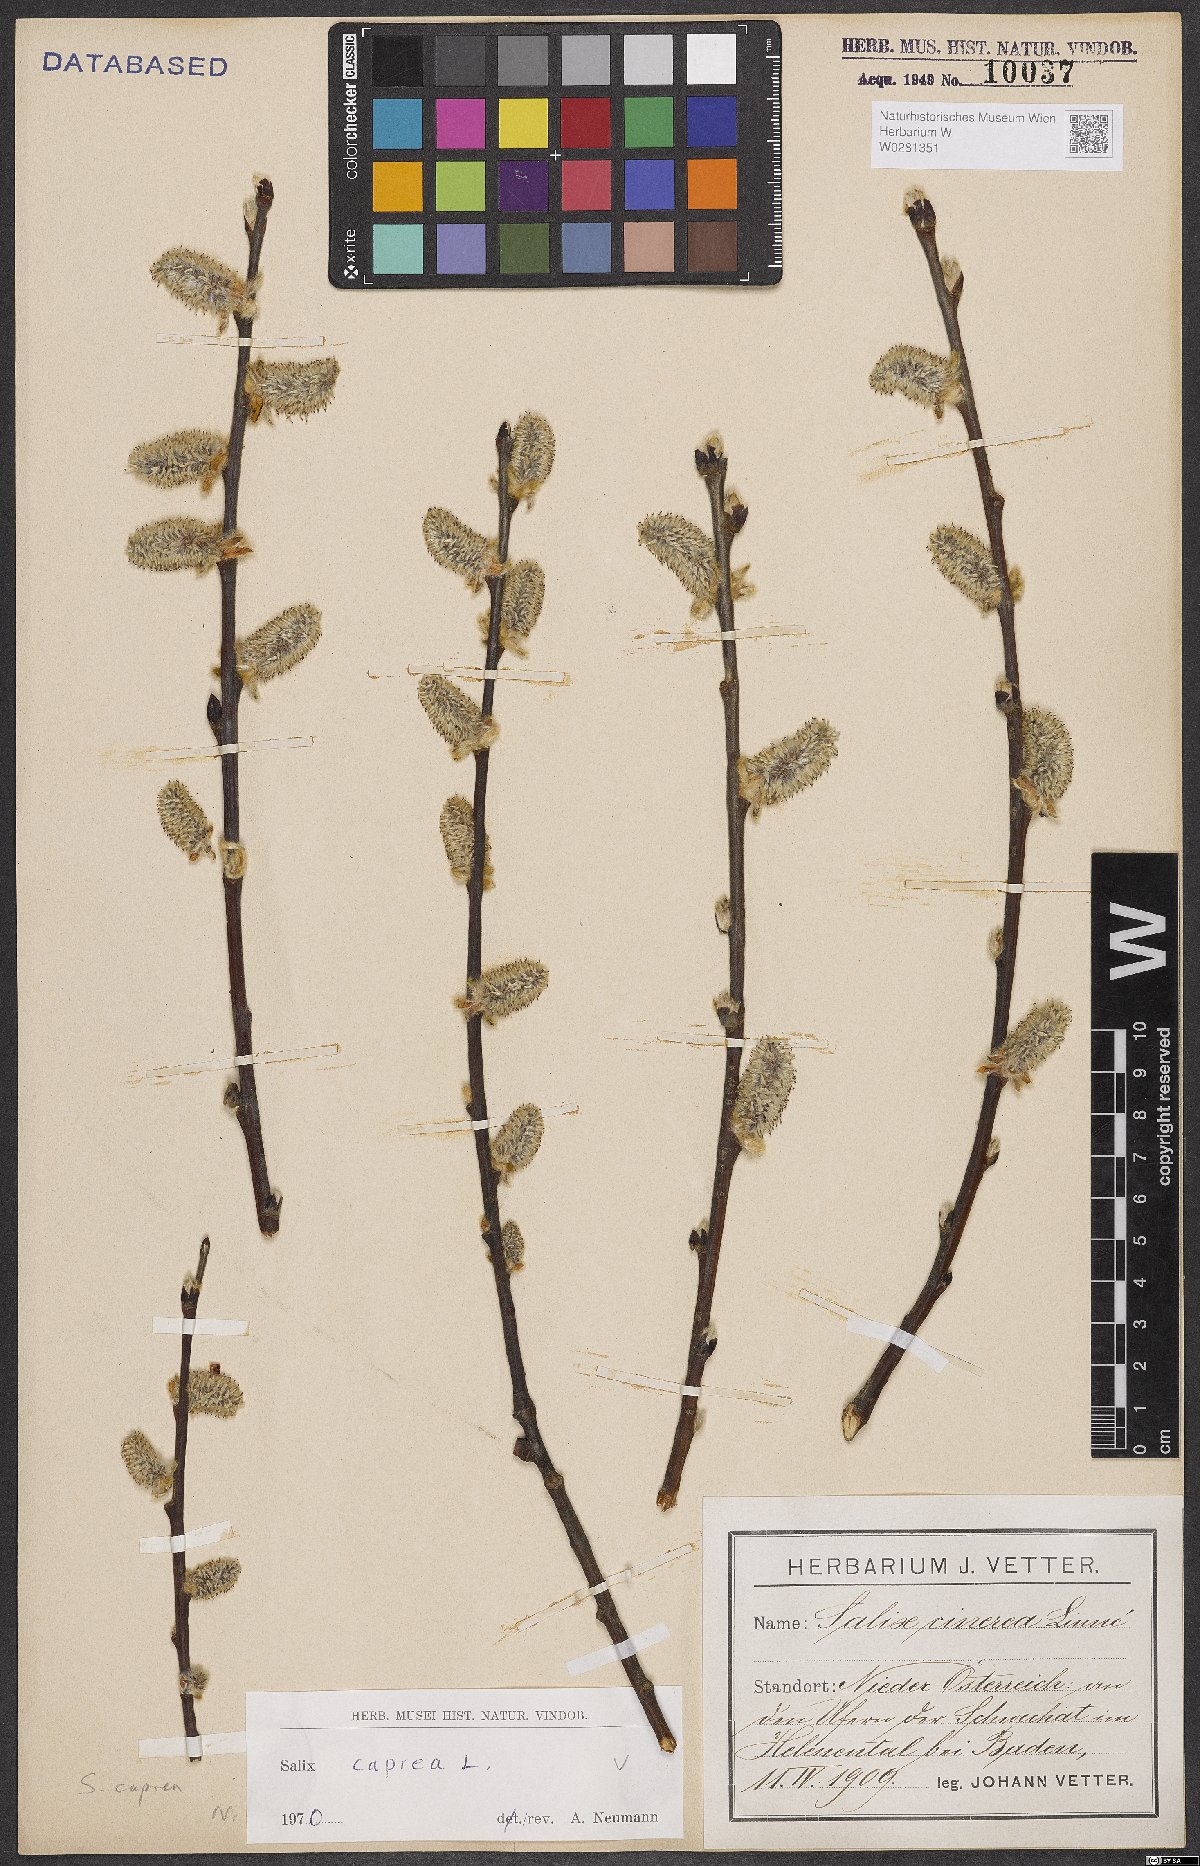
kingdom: Plantae
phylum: Tracheophyta
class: Magnoliopsida
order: Malpighiales
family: Salicaceae
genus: Salix
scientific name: Salix caprea
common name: Goat willow
